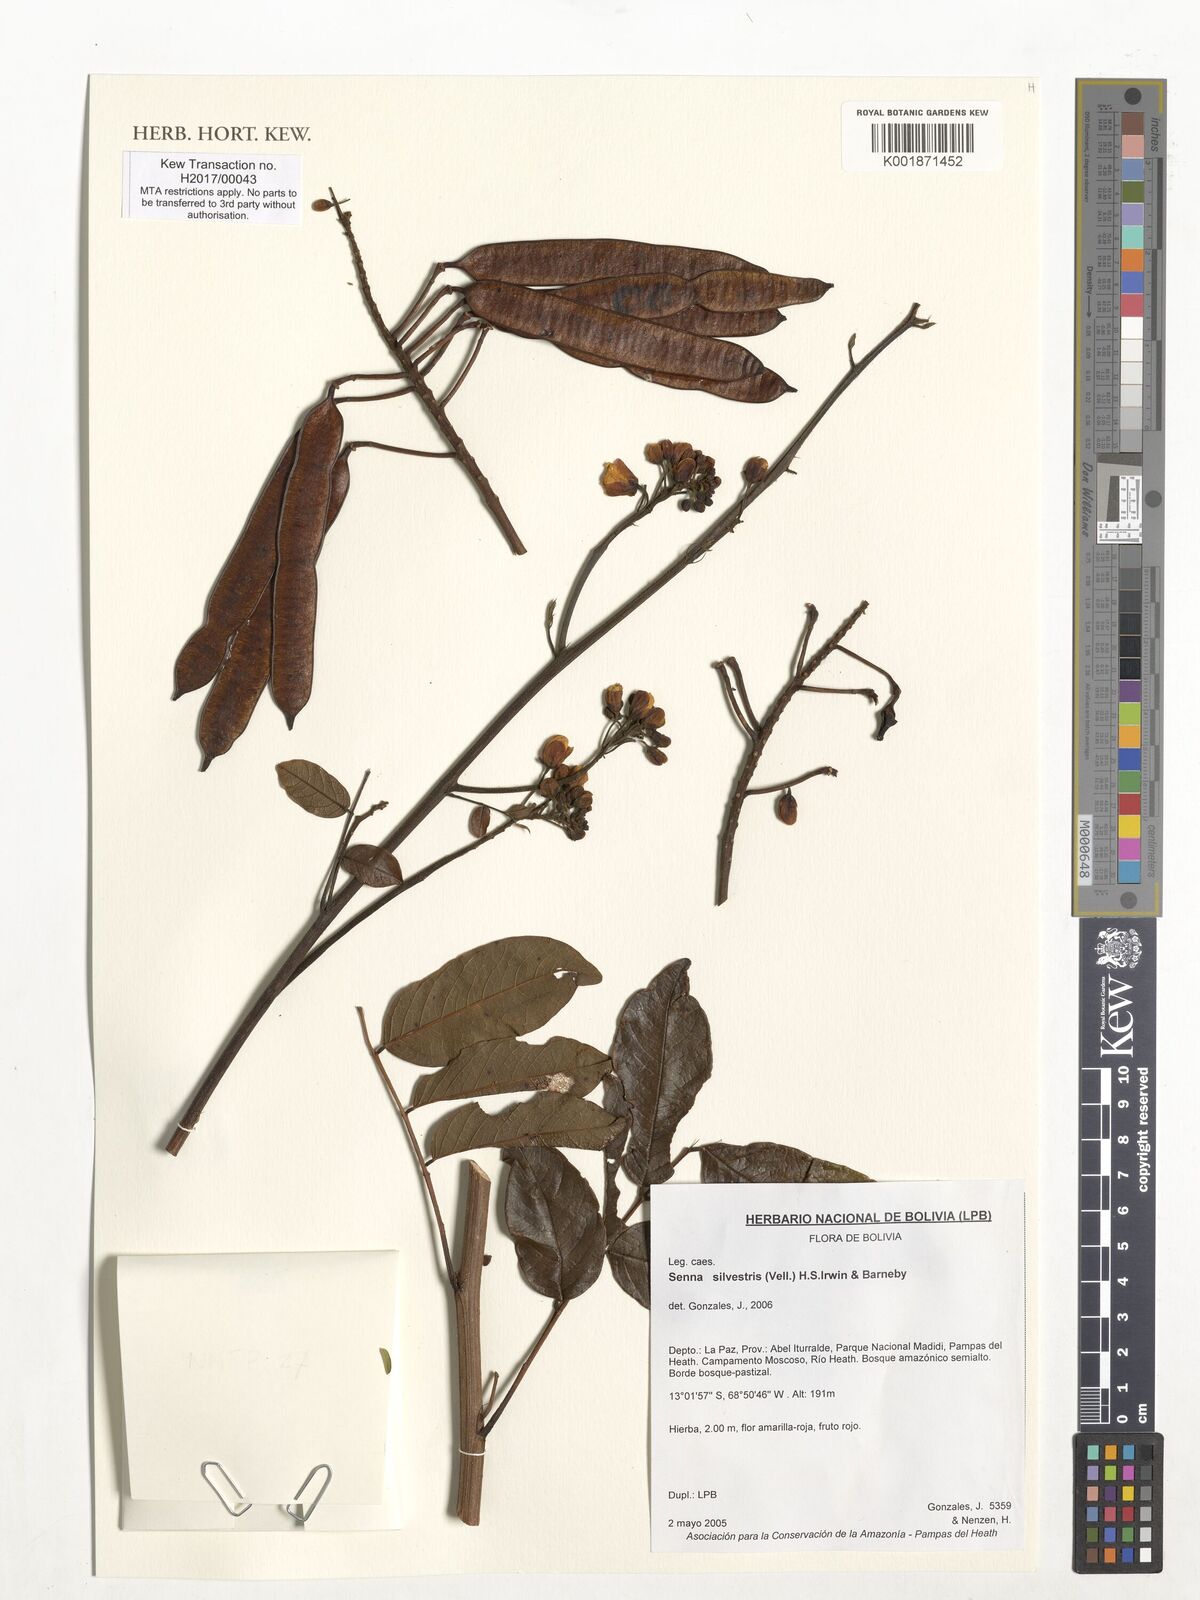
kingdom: Plantae
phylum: Tracheophyta
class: Magnoliopsida
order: Fabales
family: Fabaceae
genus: Senna
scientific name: Senna silvestris
